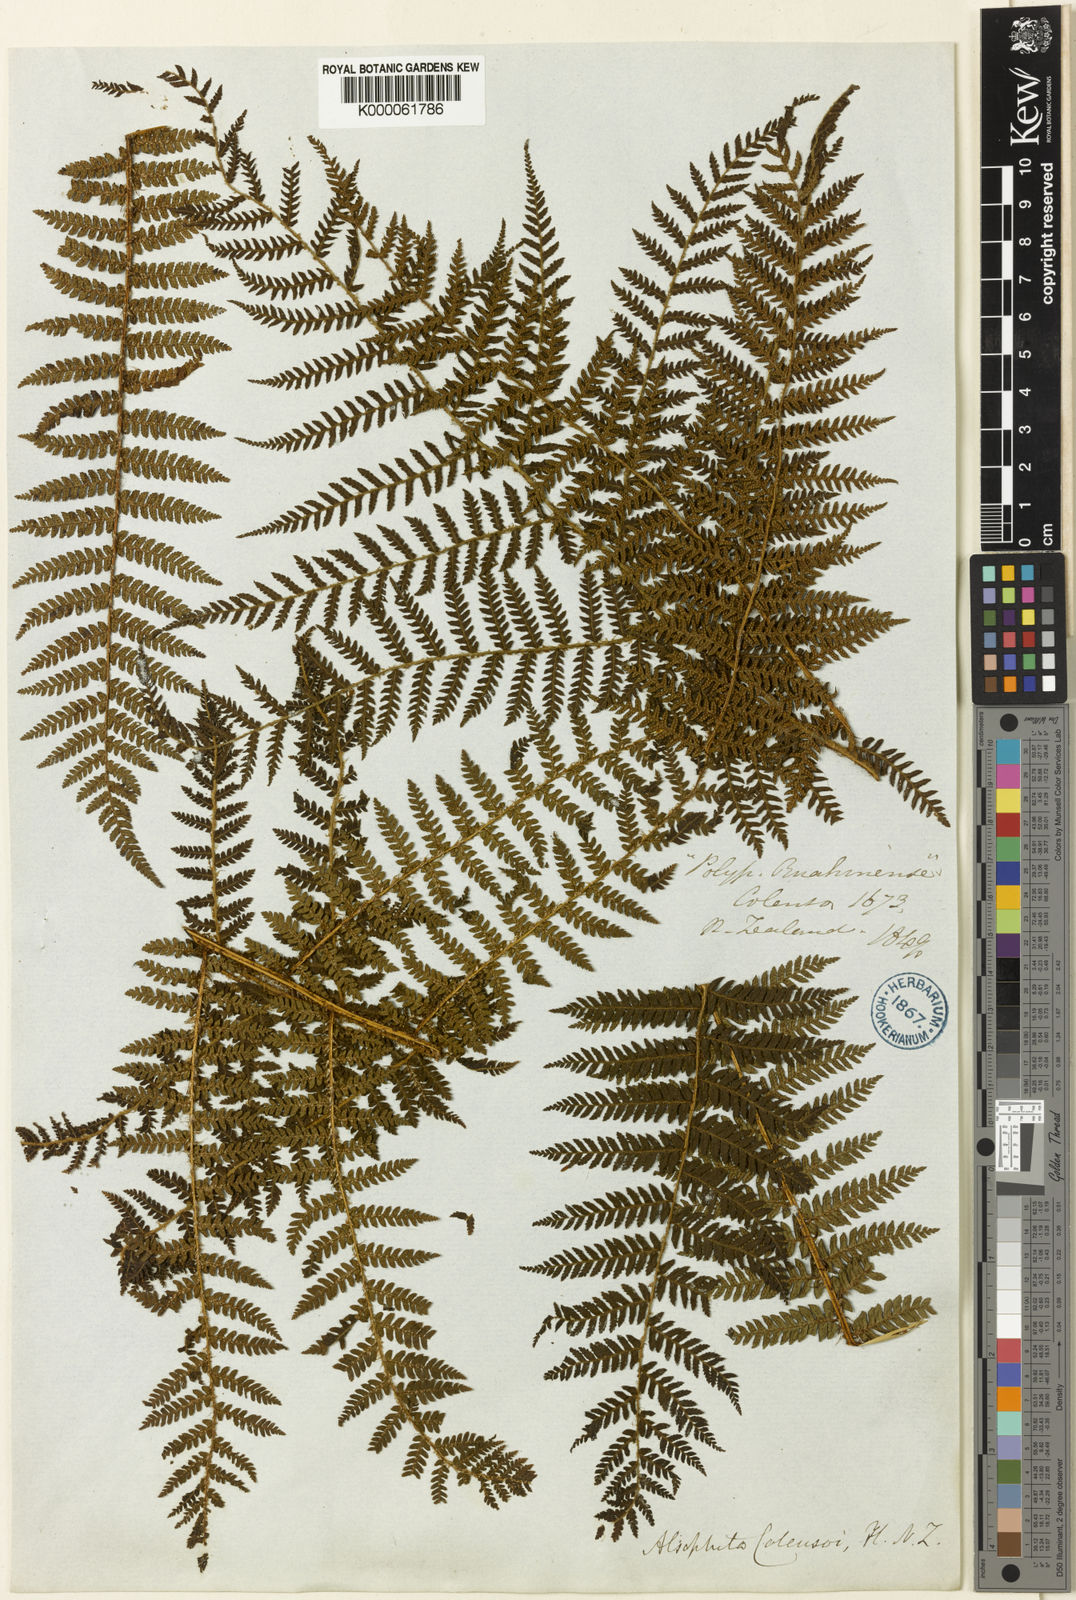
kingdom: Plantae
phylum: Tracheophyta
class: Polypodiopsida
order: Cyatheales
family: Cyatheaceae
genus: Alsophila
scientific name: Alsophila colensoi
